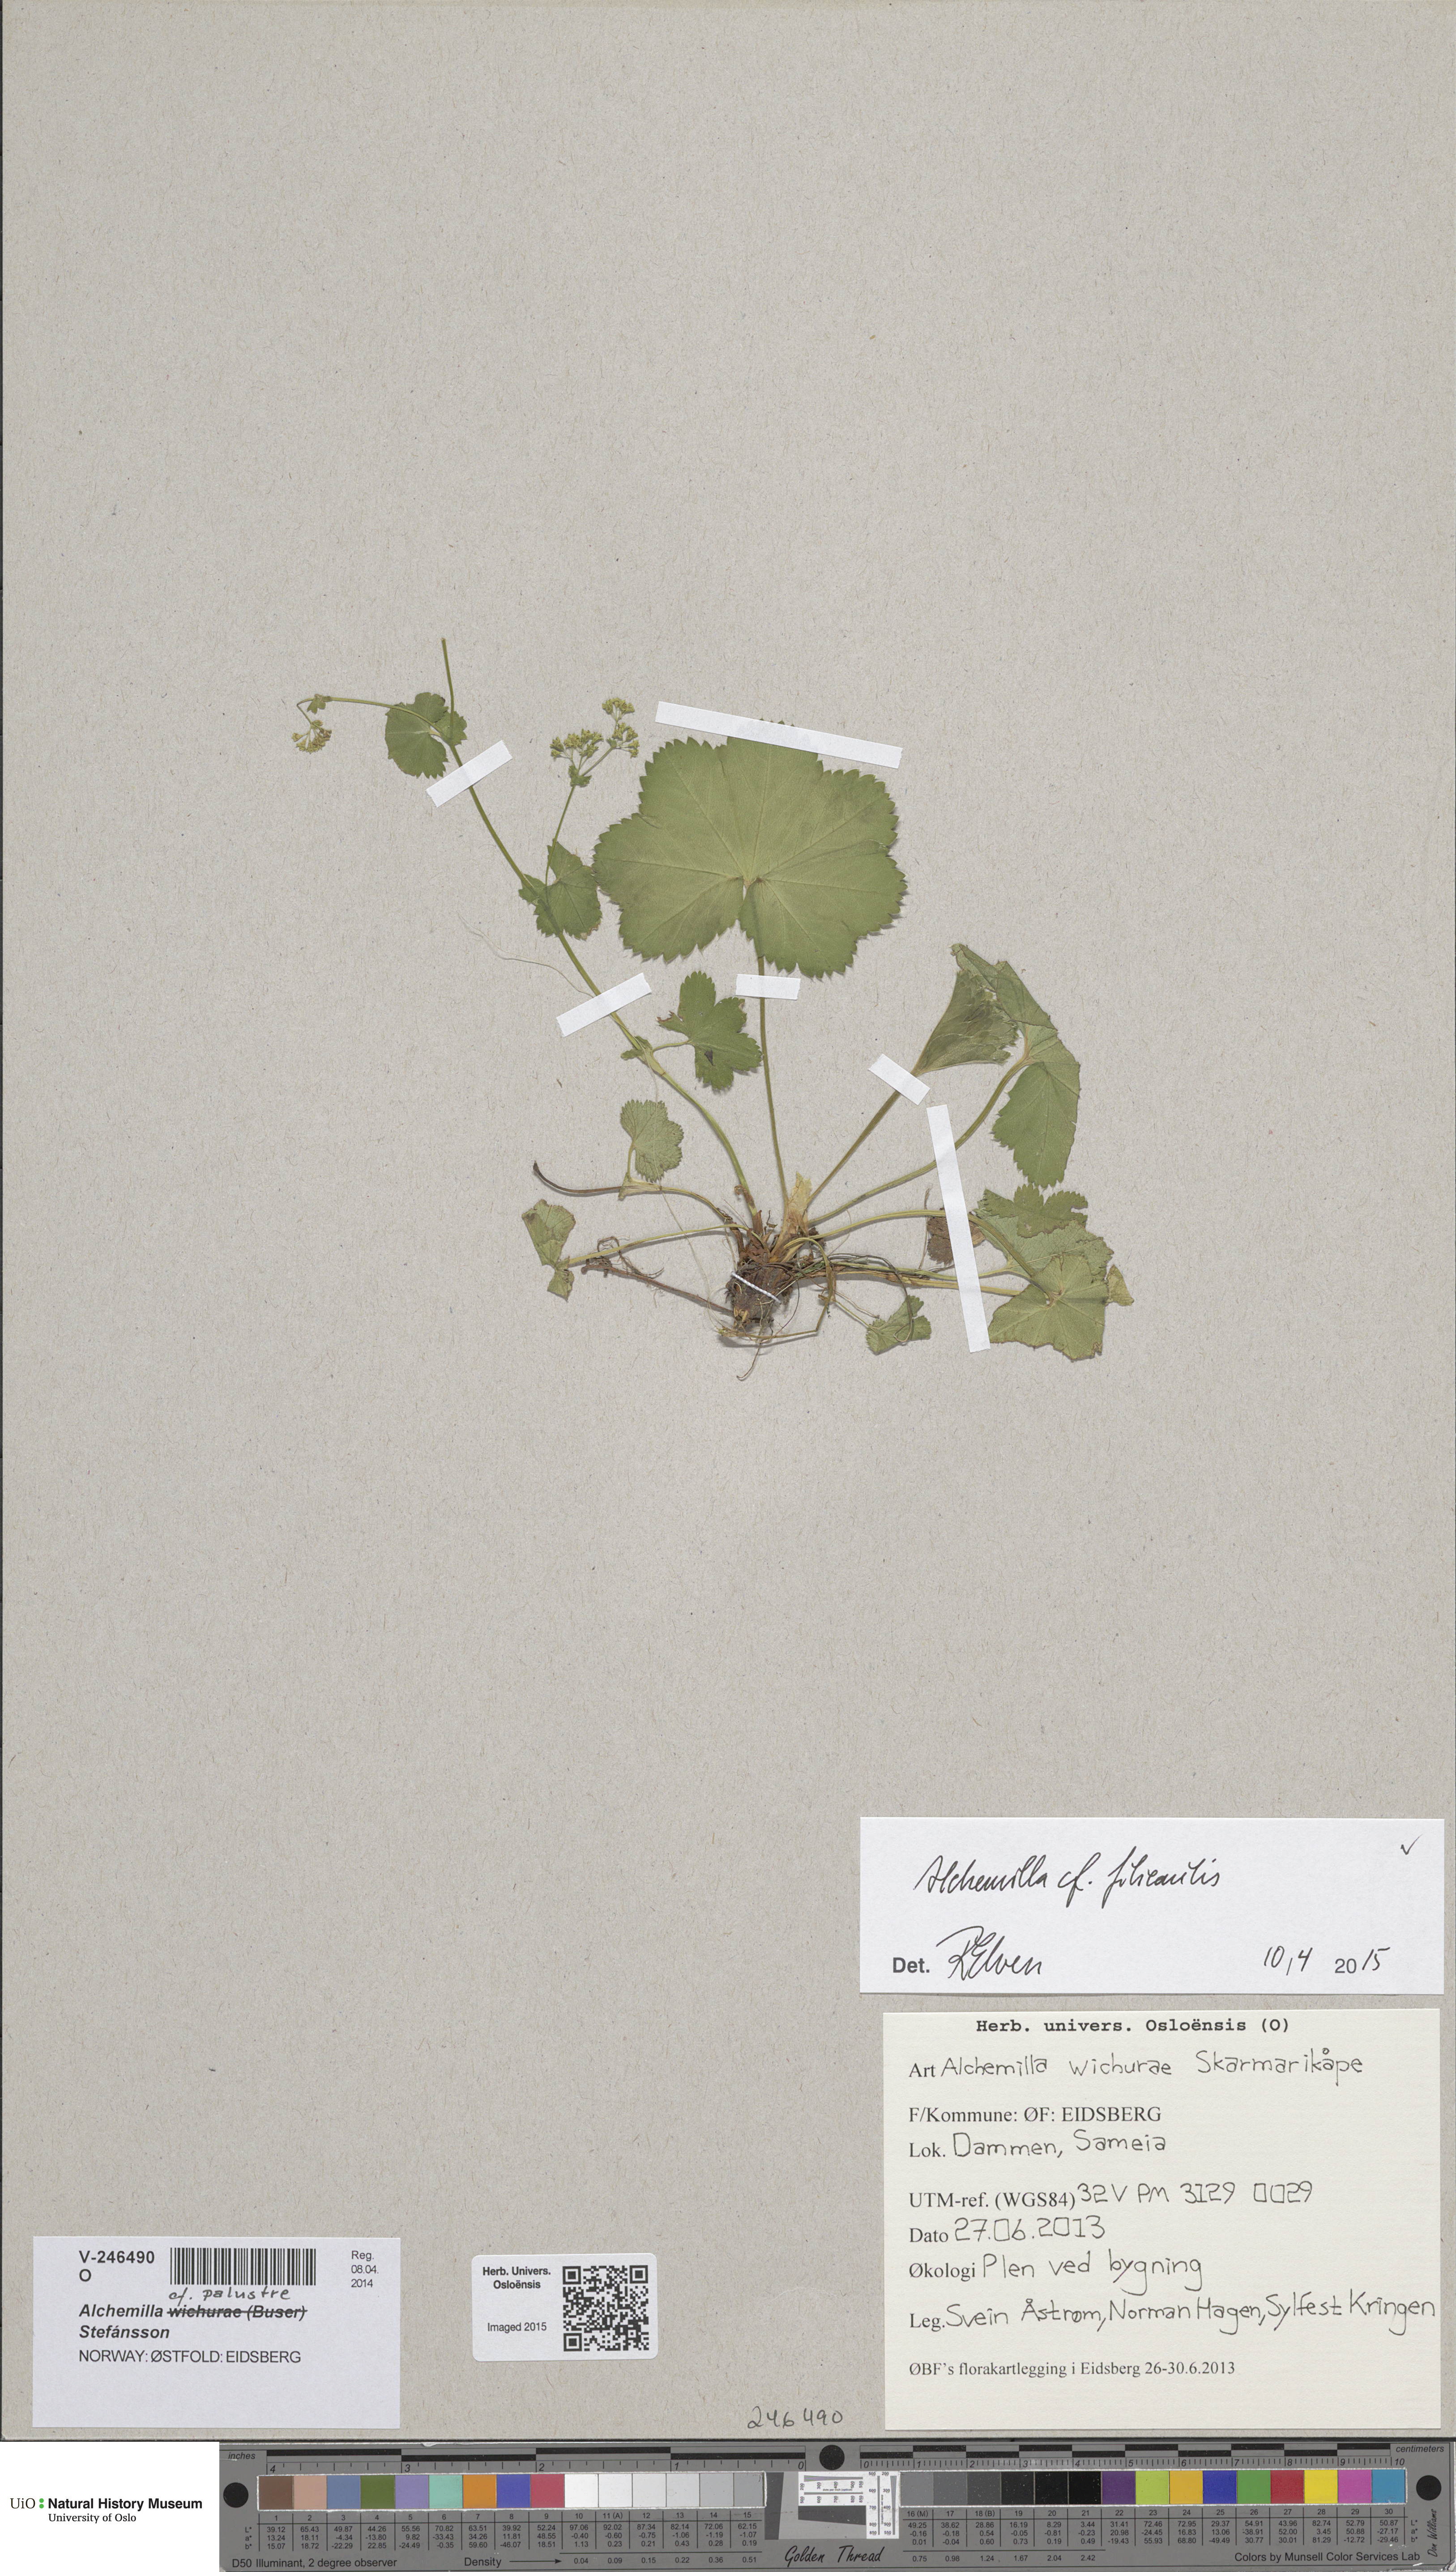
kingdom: Plantae
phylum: Tracheophyta
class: Magnoliopsida
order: Rosales
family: Rosaceae
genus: Alchemilla
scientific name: Alchemilla filicaulis
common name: Hairy lady's-mantle
